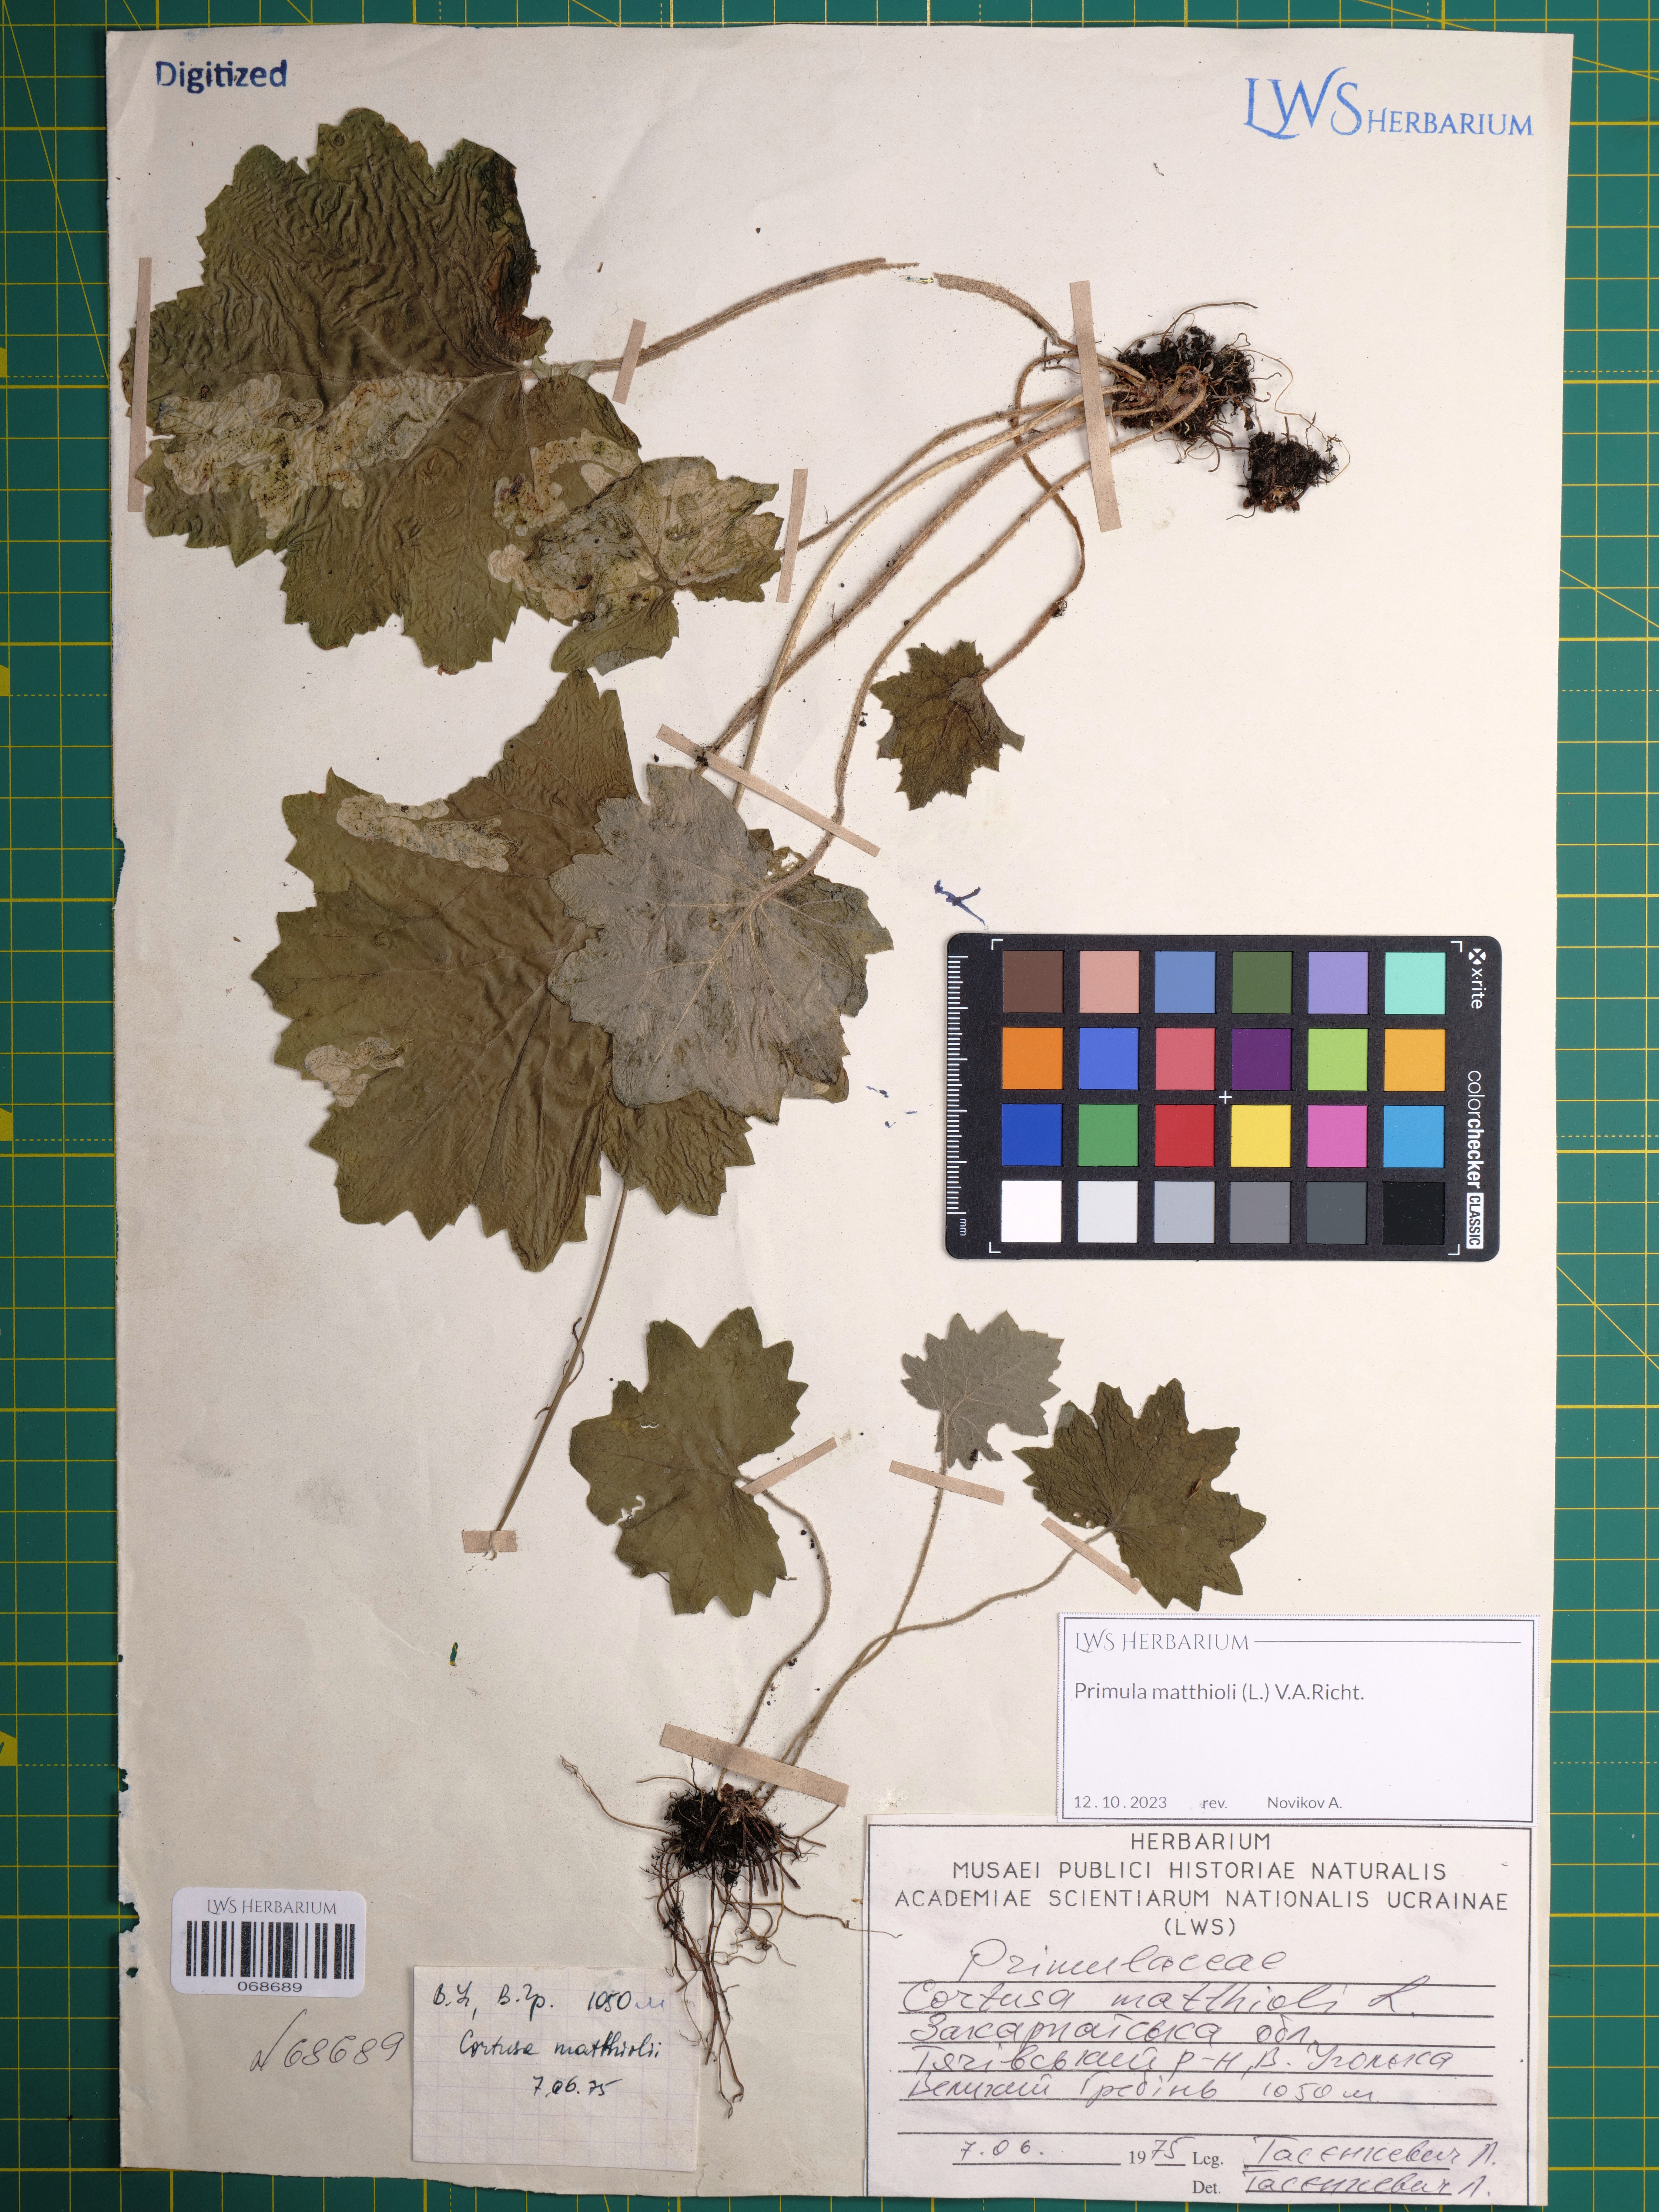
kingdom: Plantae
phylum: Tracheophyta
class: Magnoliopsida
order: Ericales
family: Primulaceae
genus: Primula
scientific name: Primula matthioli
